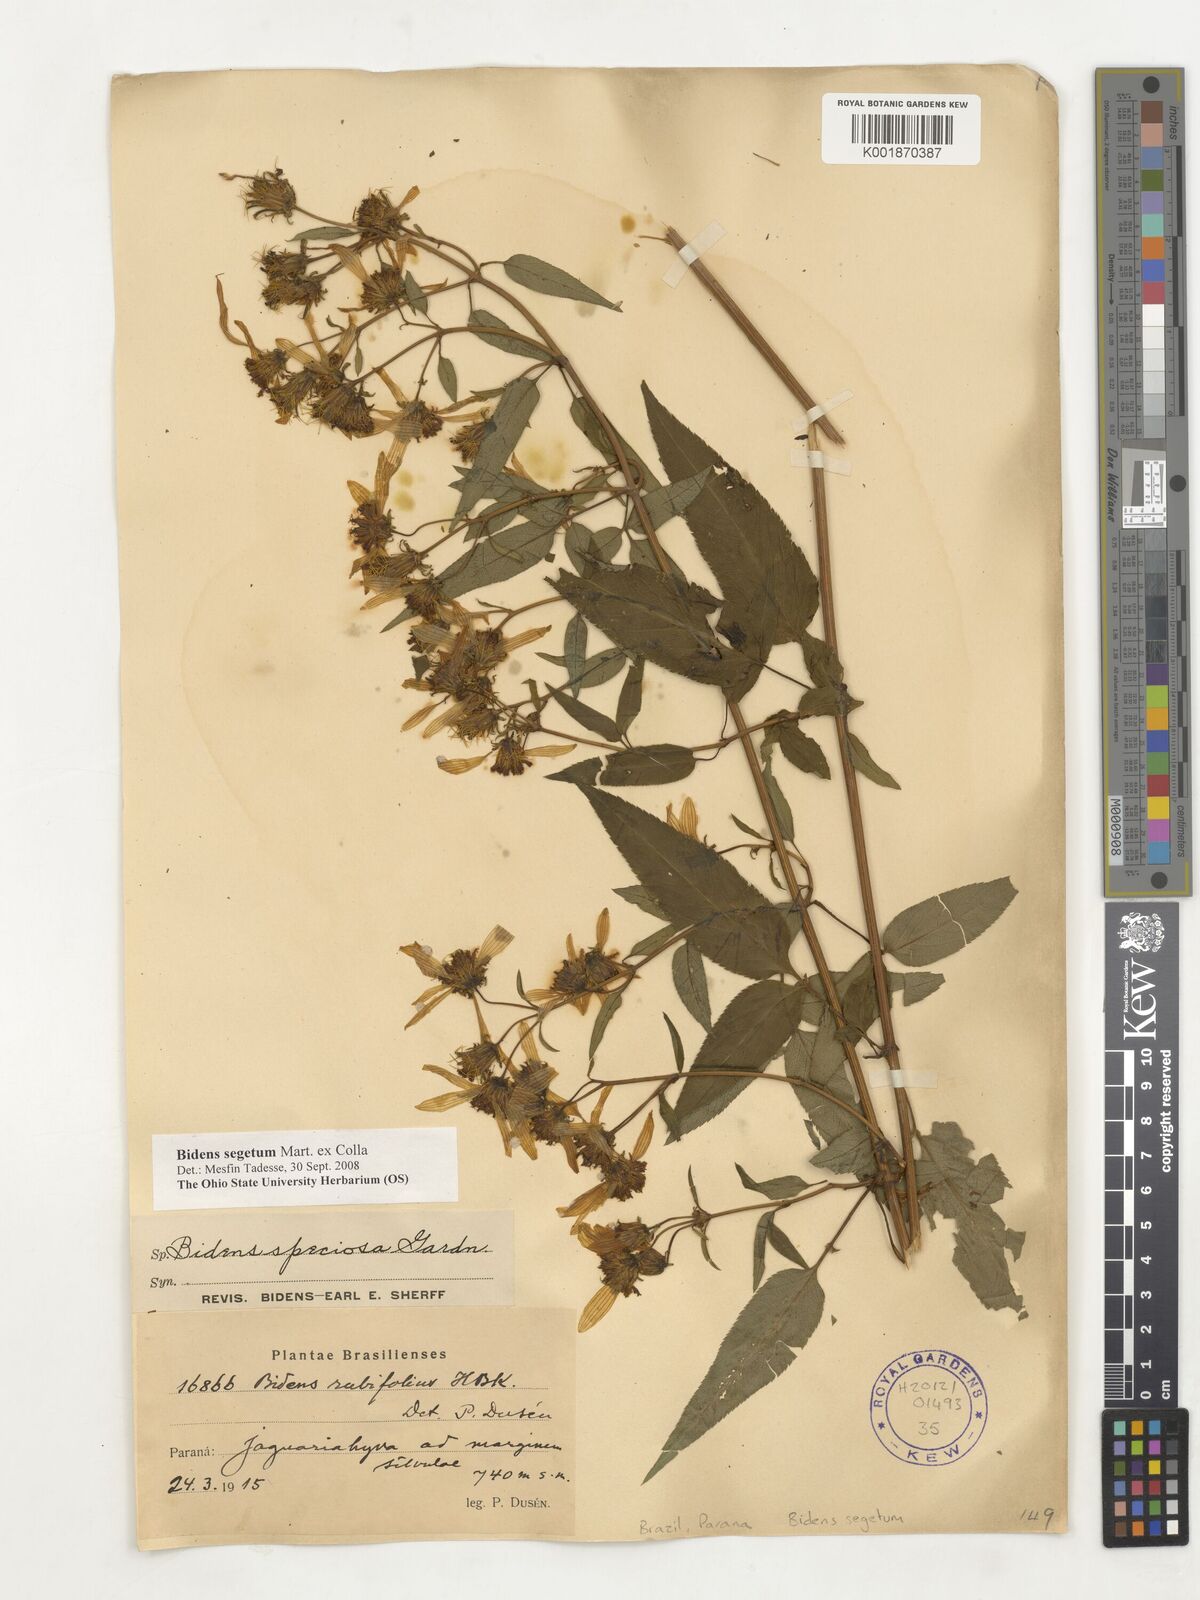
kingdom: Plantae
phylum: Tracheophyta
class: Magnoliopsida
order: Asterales
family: Asteraceae
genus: Bidens
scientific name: Bidens segetum
